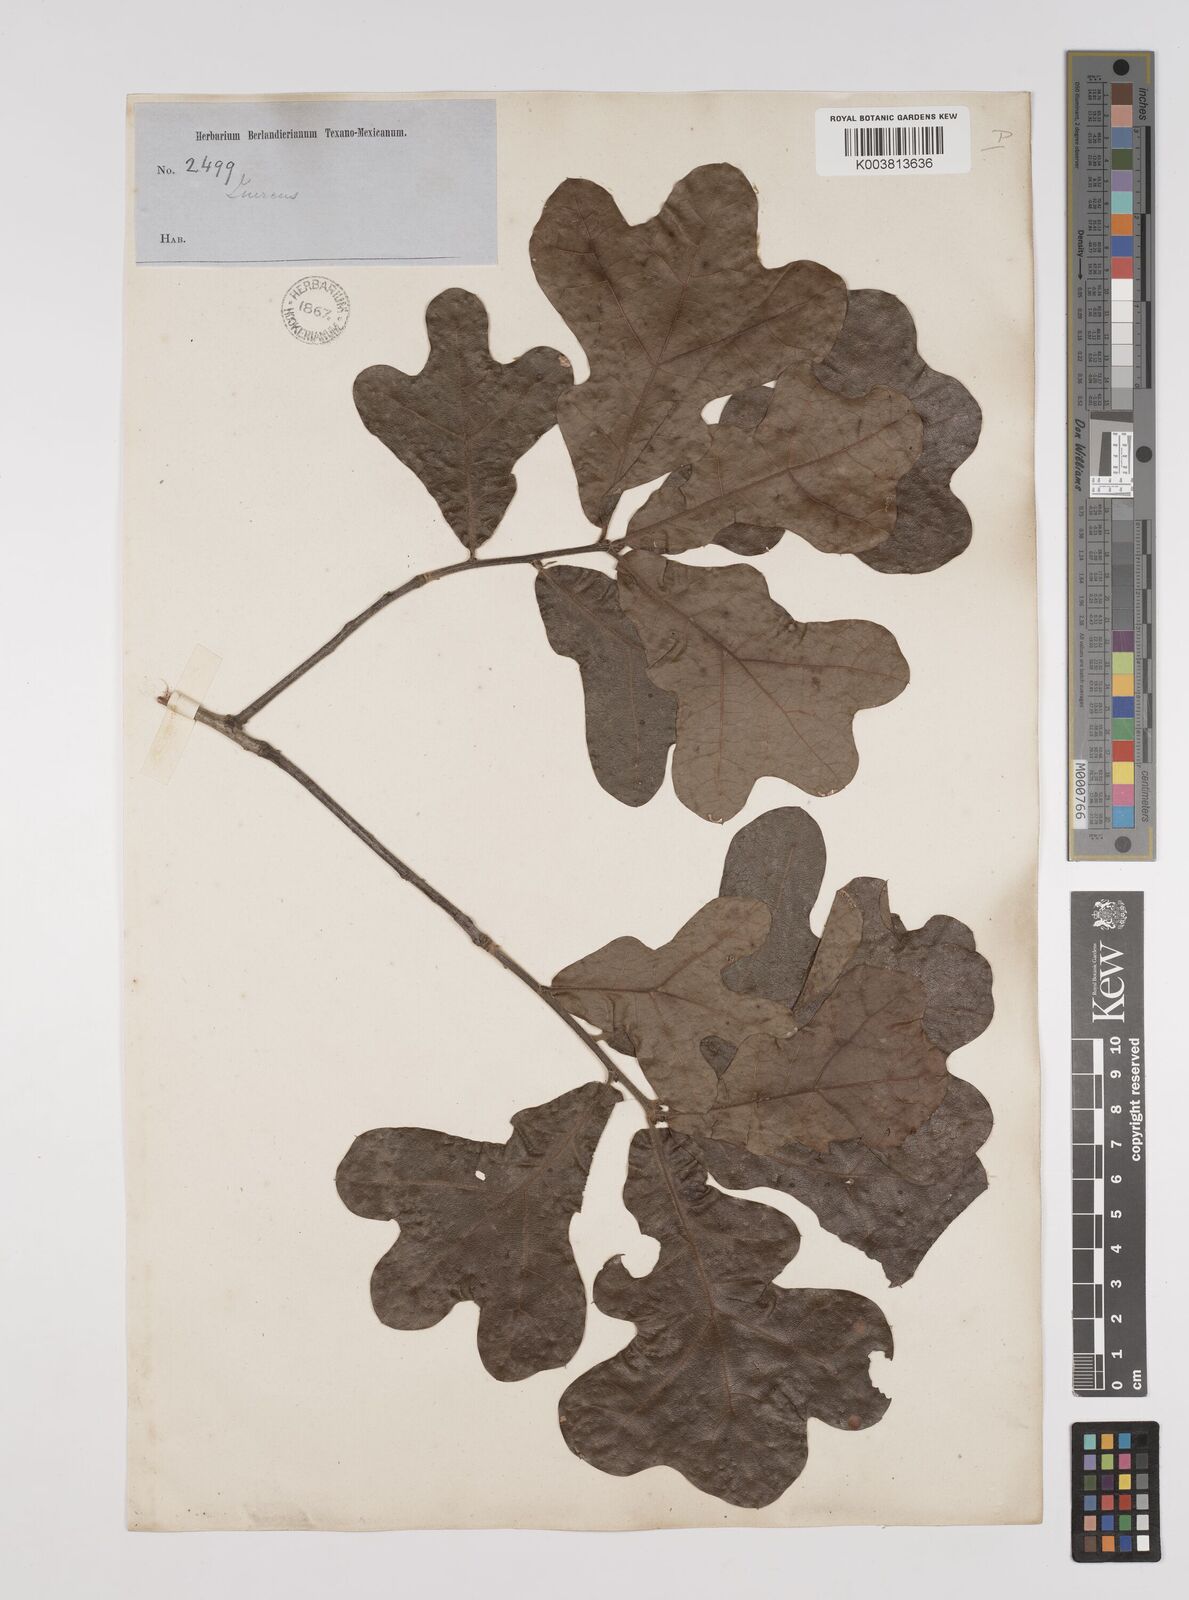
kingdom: Plantae
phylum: Tracheophyta
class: Magnoliopsida
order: Fagales
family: Fagaceae
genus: Quercus
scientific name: Quercus stellata
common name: Post oak
